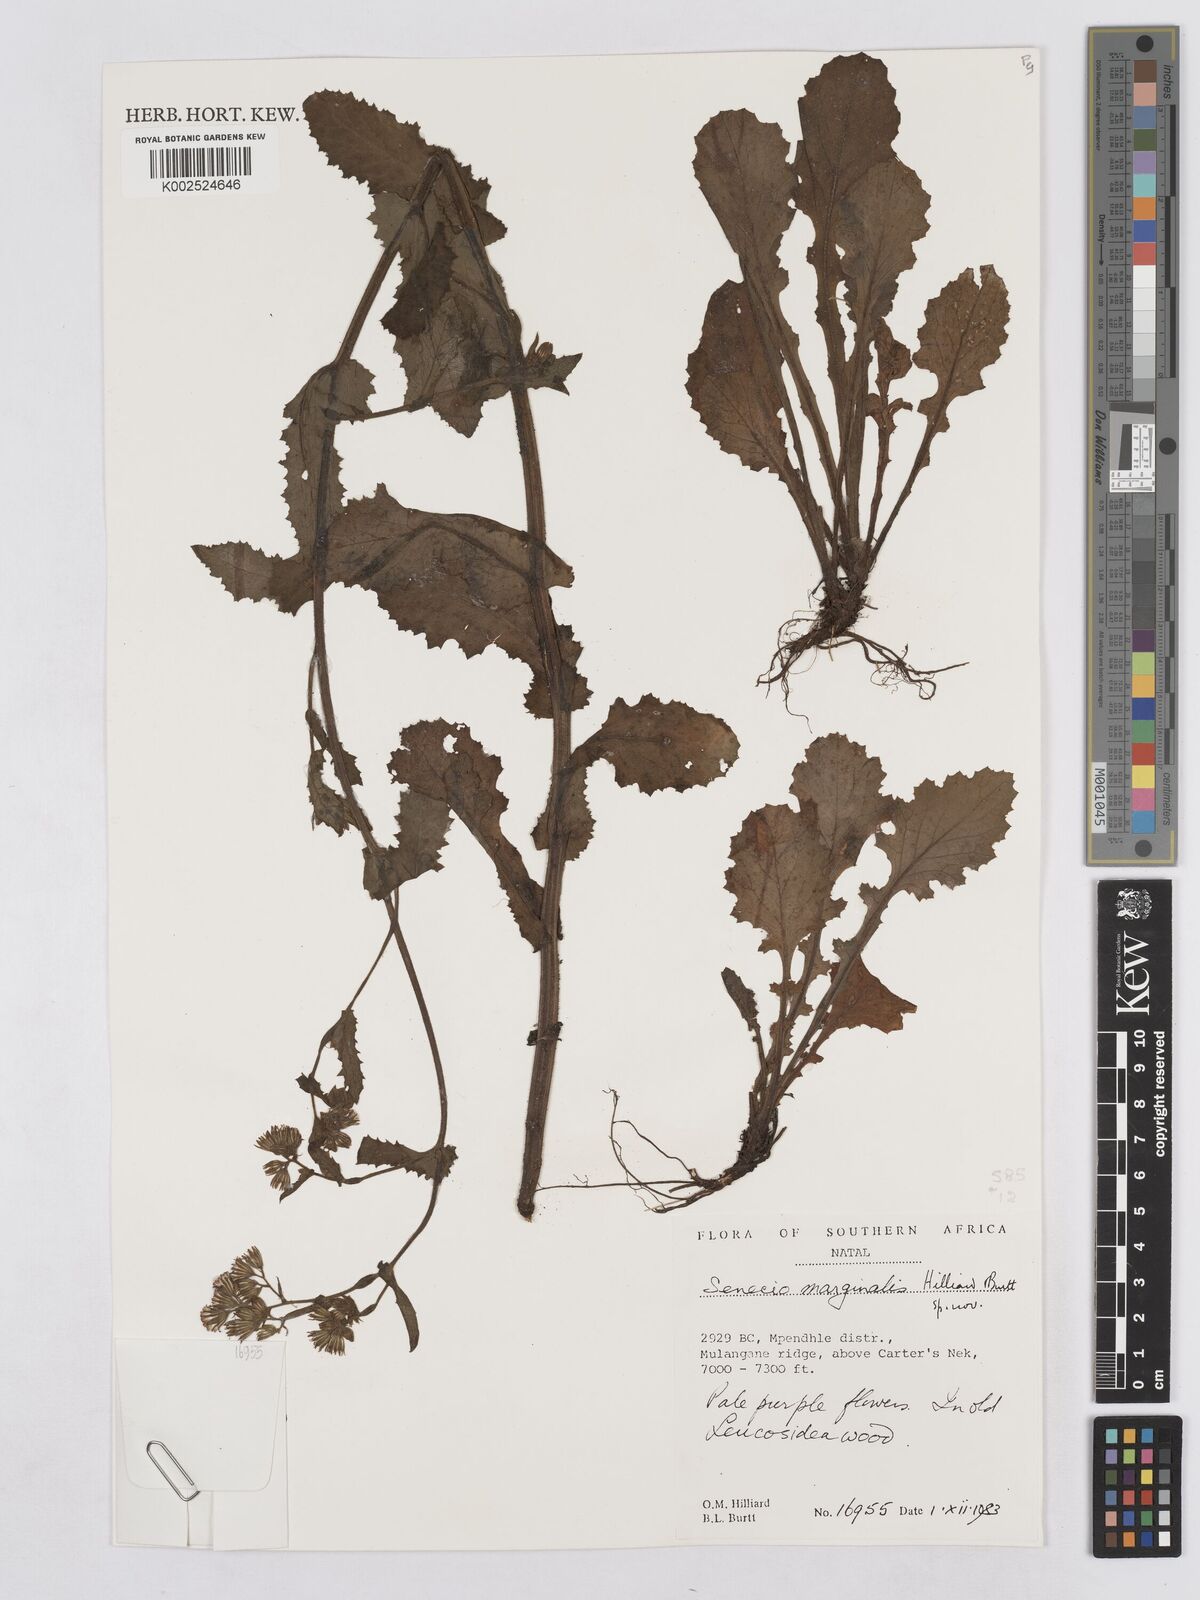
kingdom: Plantae
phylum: Tracheophyta
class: Magnoliopsida
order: Asterales
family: Asteraceae
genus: Senecio
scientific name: Senecio marginalis
